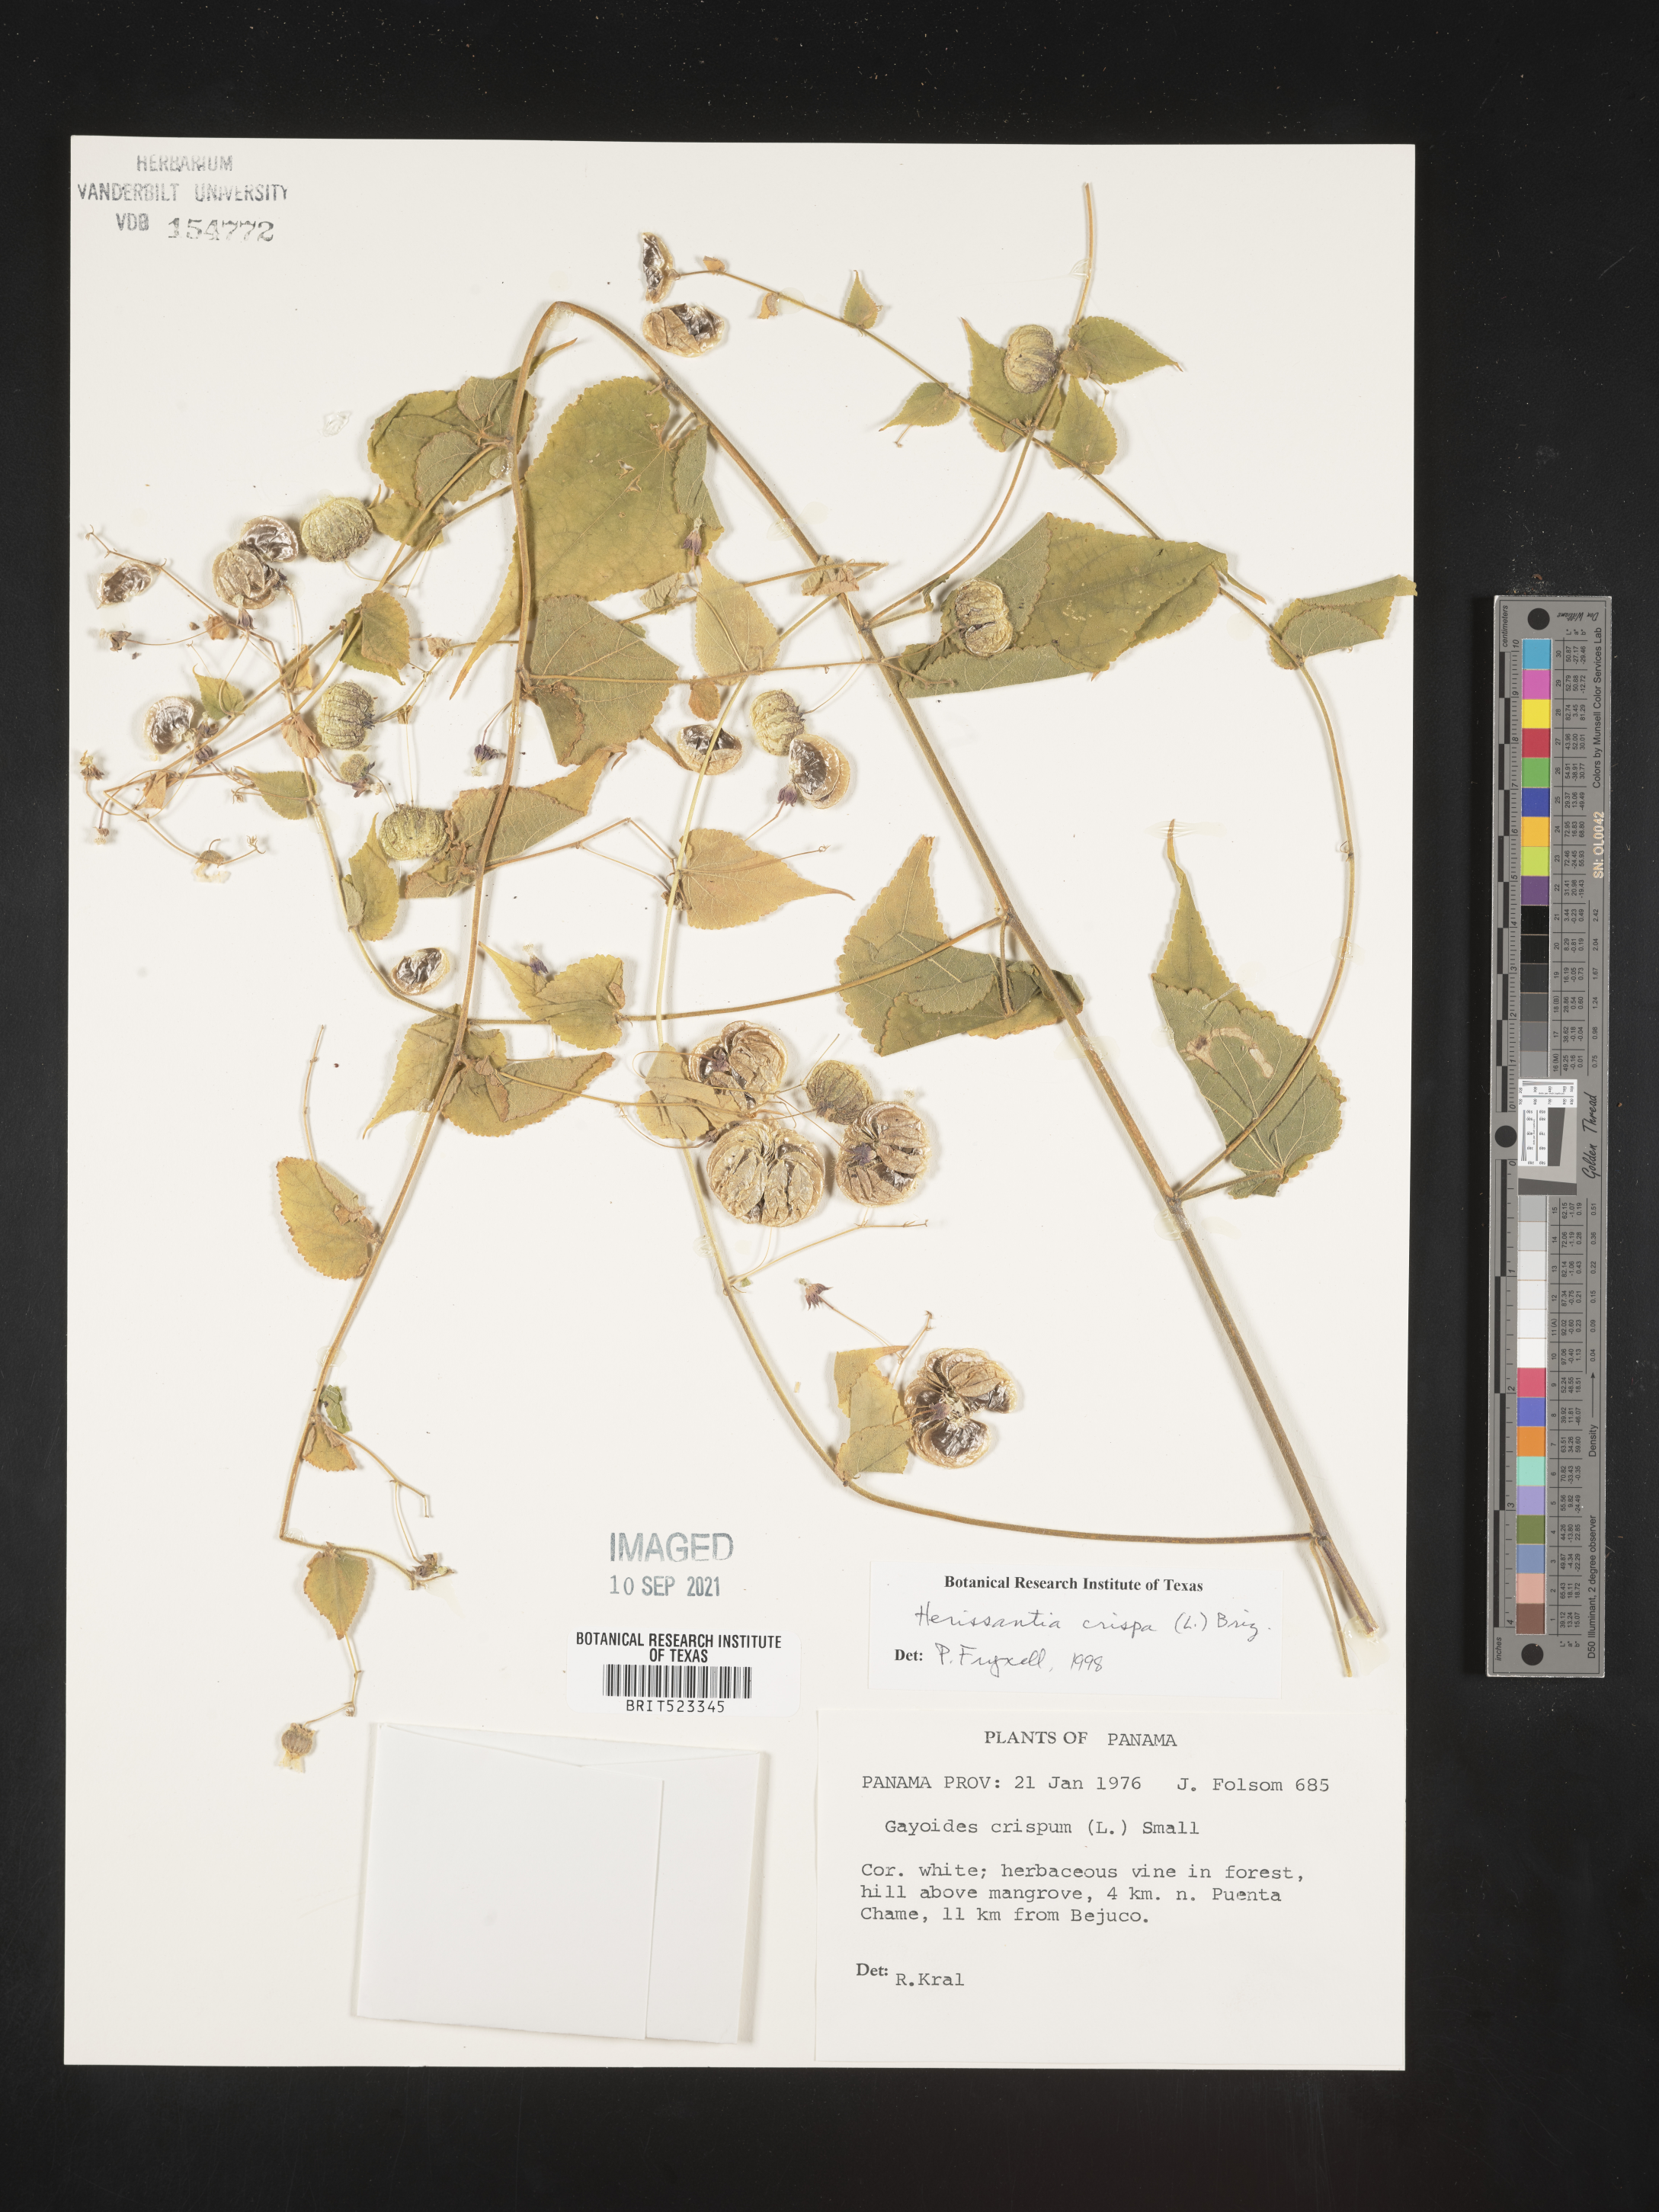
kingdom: Plantae
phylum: Tracheophyta
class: Magnoliopsida
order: Malvales
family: Malvaceae
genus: Herissantia
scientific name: Herissantia
